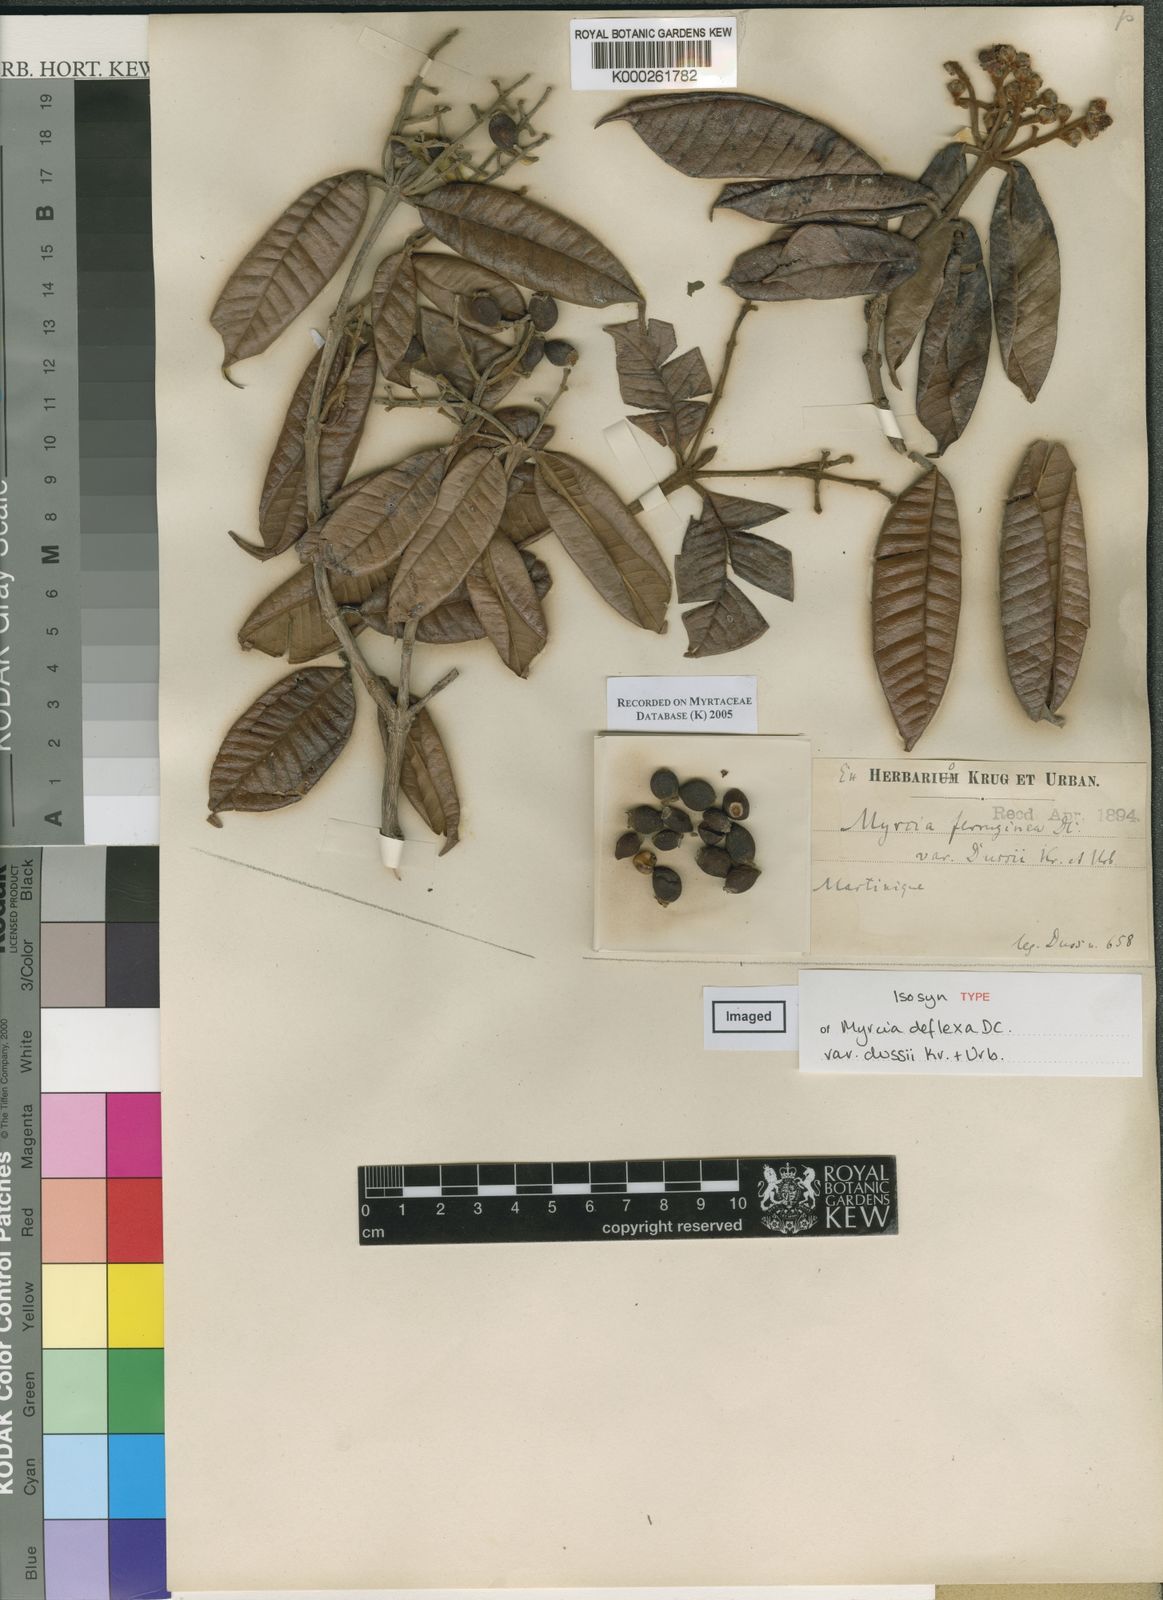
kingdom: Plantae
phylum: Tracheophyta
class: Magnoliopsida
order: Myrtales
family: Myrtaceae
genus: Myrcia
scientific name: Myrcia ferruginea
